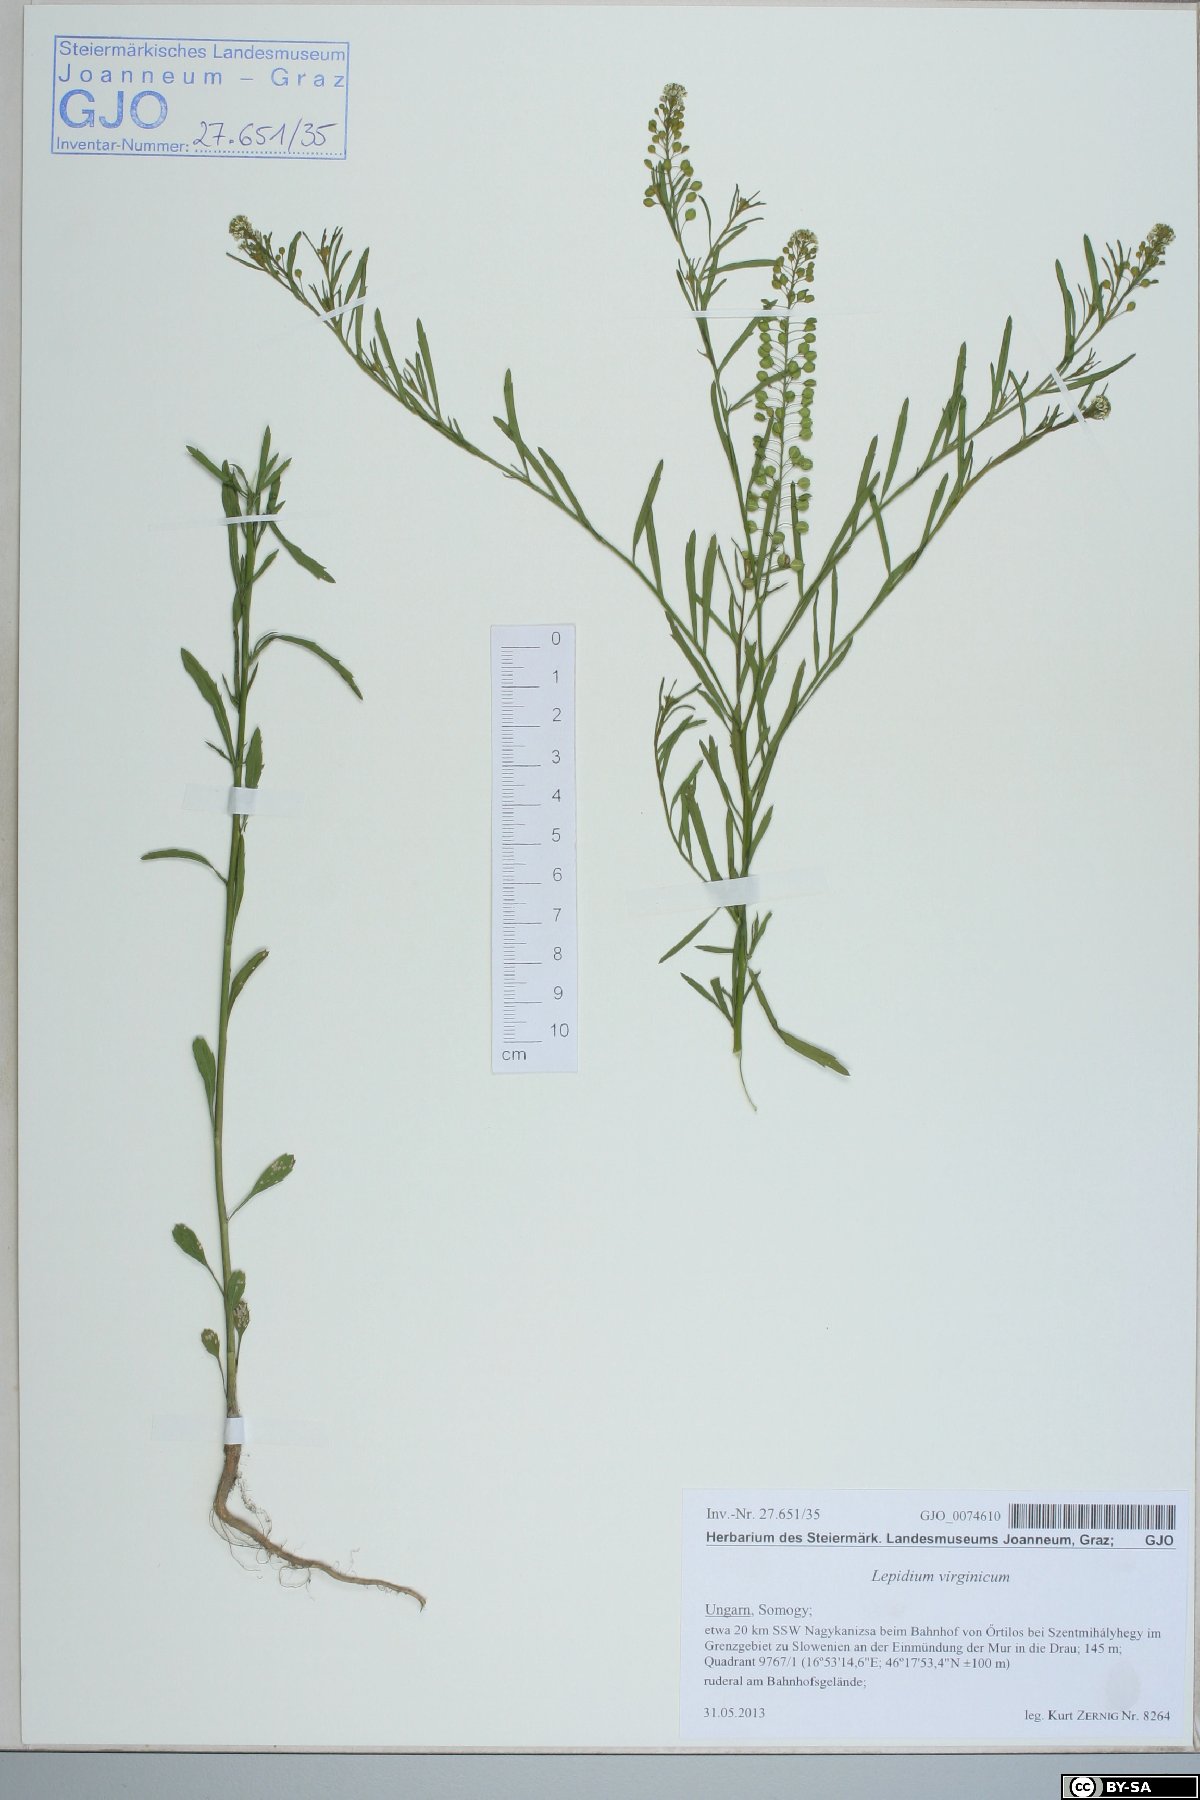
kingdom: Plantae
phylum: Tracheophyta
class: Magnoliopsida
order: Brassicales
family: Brassicaceae
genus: Lepidium
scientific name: Lepidium virginicum
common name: Least pepperwort
